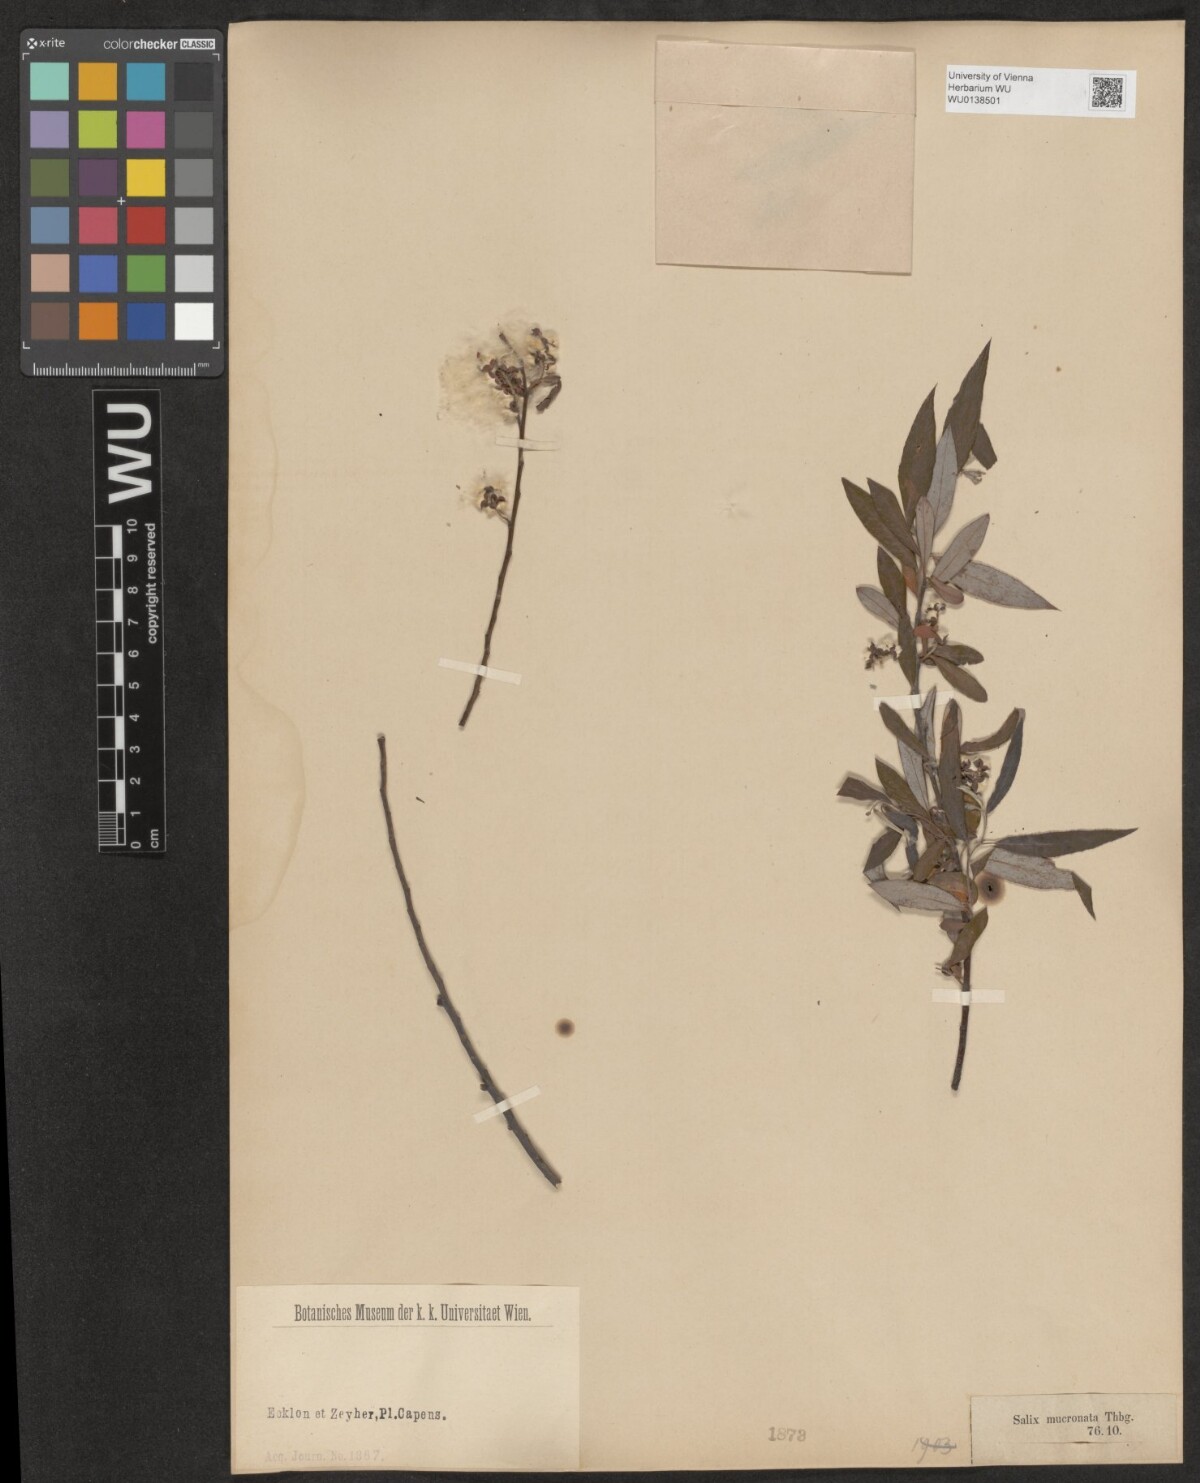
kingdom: Plantae
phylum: Tracheophyta
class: Magnoliopsida
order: Malpighiales
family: Salicaceae
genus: Salix
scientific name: Salix mucronata
